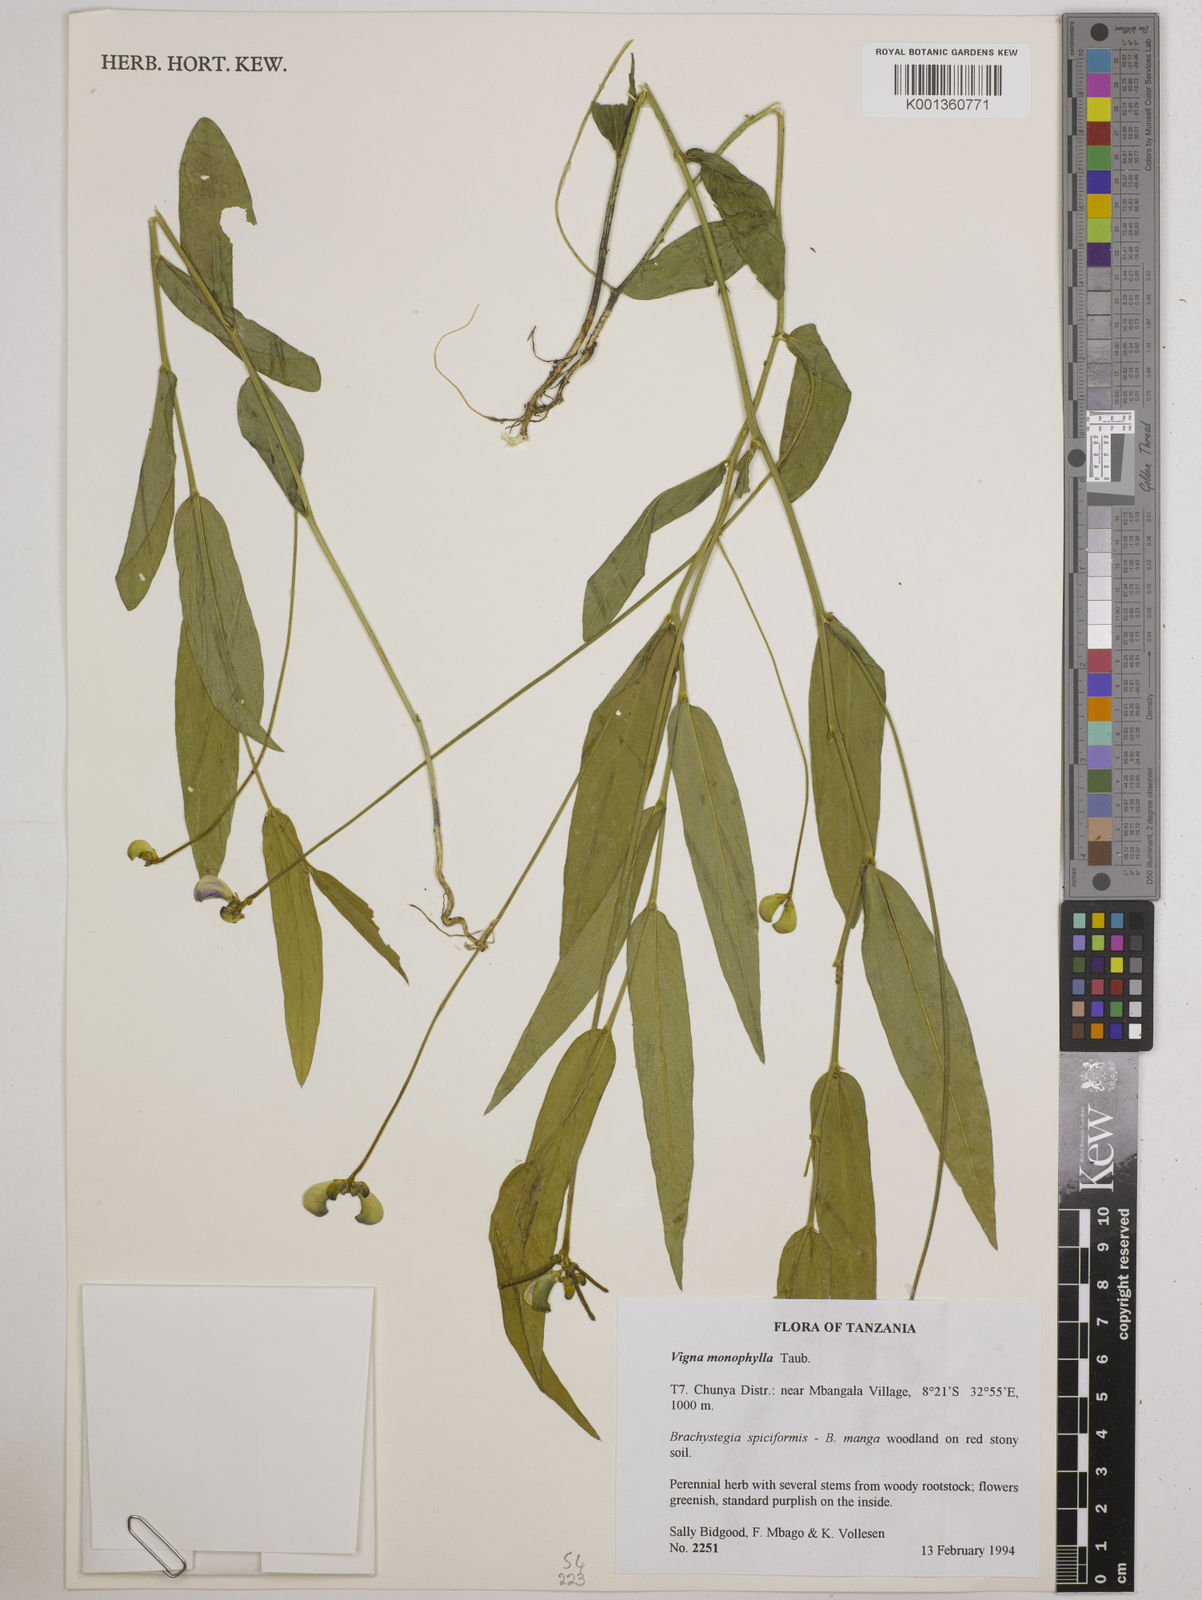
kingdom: Plantae
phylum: Tracheophyta
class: Magnoliopsida
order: Fabales
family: Fabaceae
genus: Vigna
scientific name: Vigna monophylla
